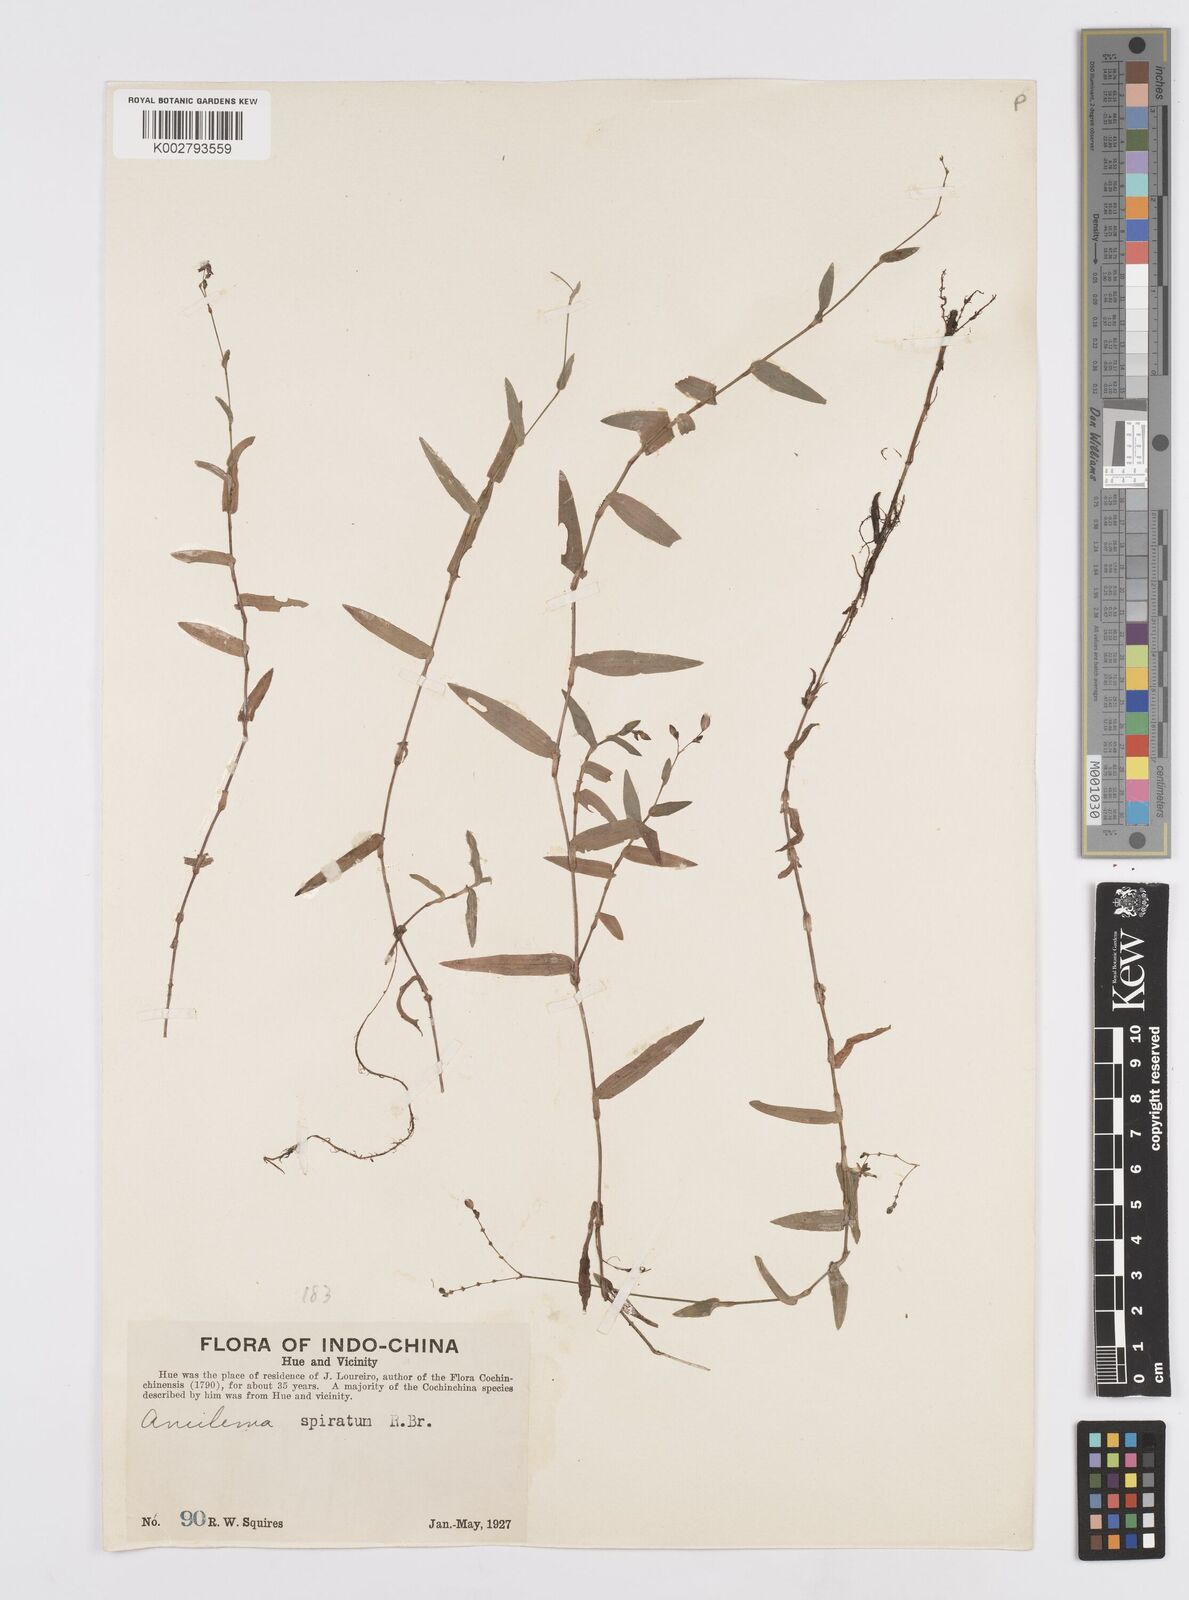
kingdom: Plantae
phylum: Tracheophyta
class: Liliopsida
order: Commelinales
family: Commelinaceae
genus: Murdannia
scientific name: Murdannia spirata
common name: Asiatic dewflower
